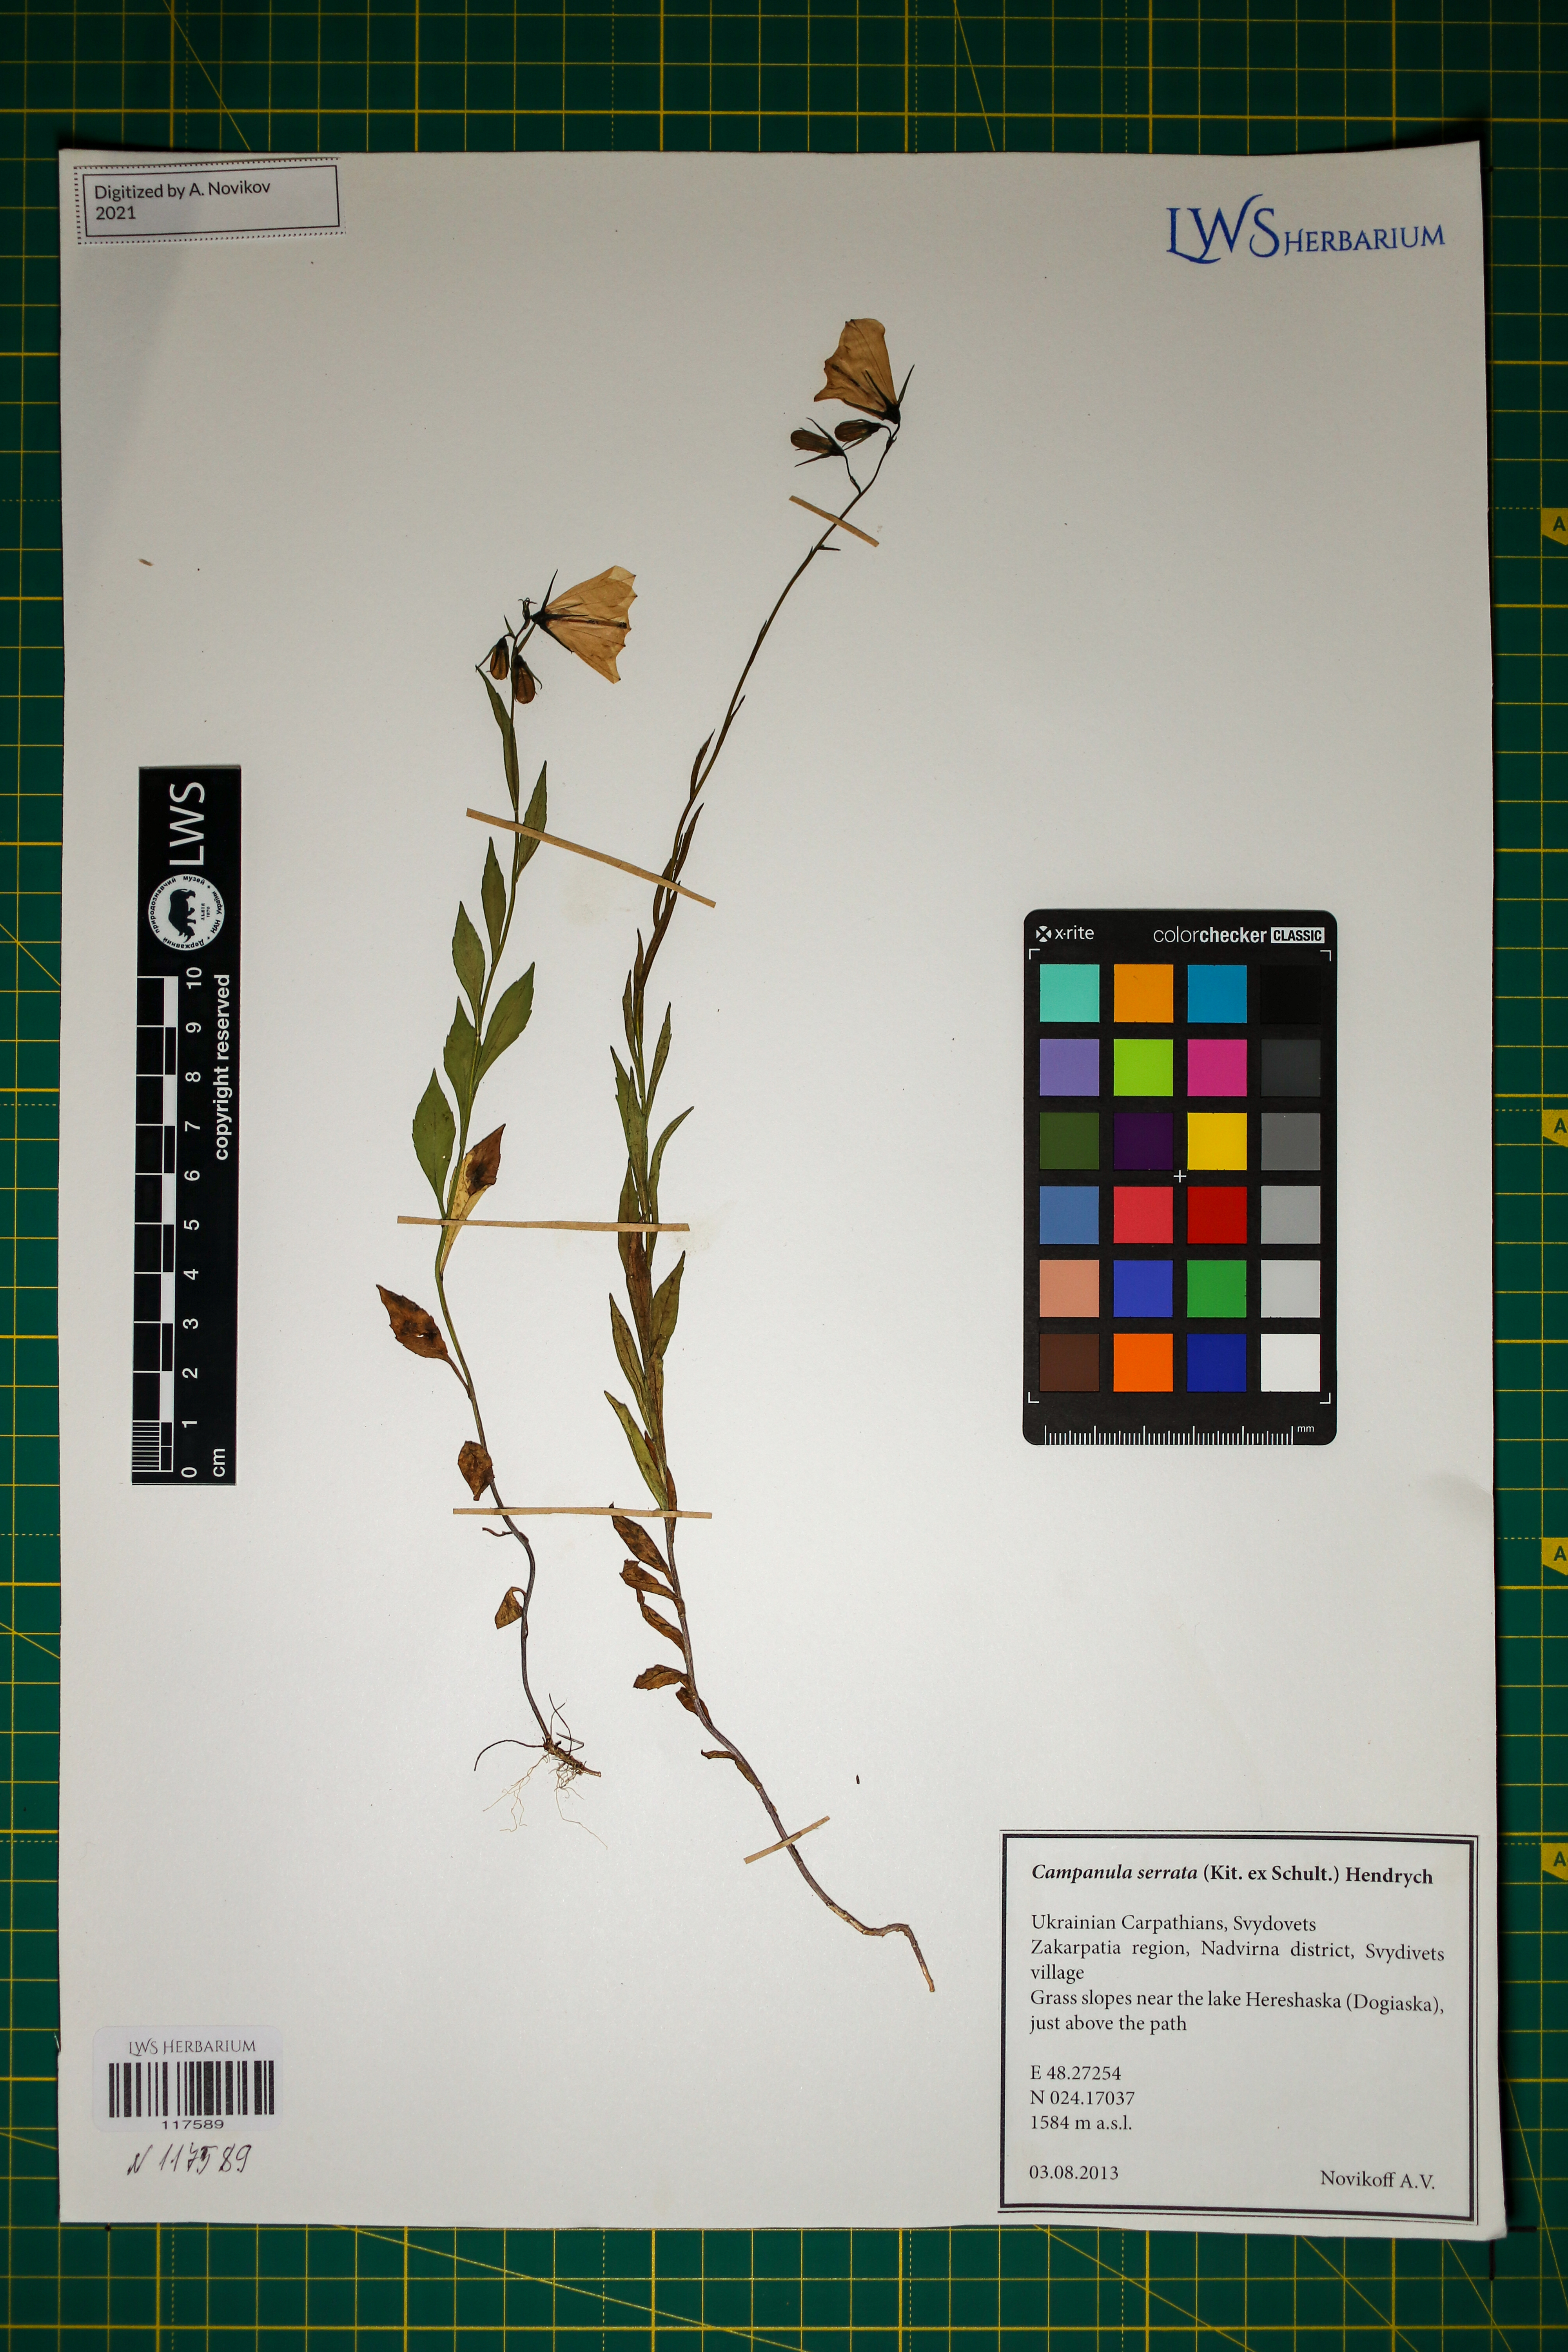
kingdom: Plantae
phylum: Tracheophyta
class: Magnoliopsida
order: Asterales
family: Campanulaceae
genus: Campanula
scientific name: Campanula serrata
